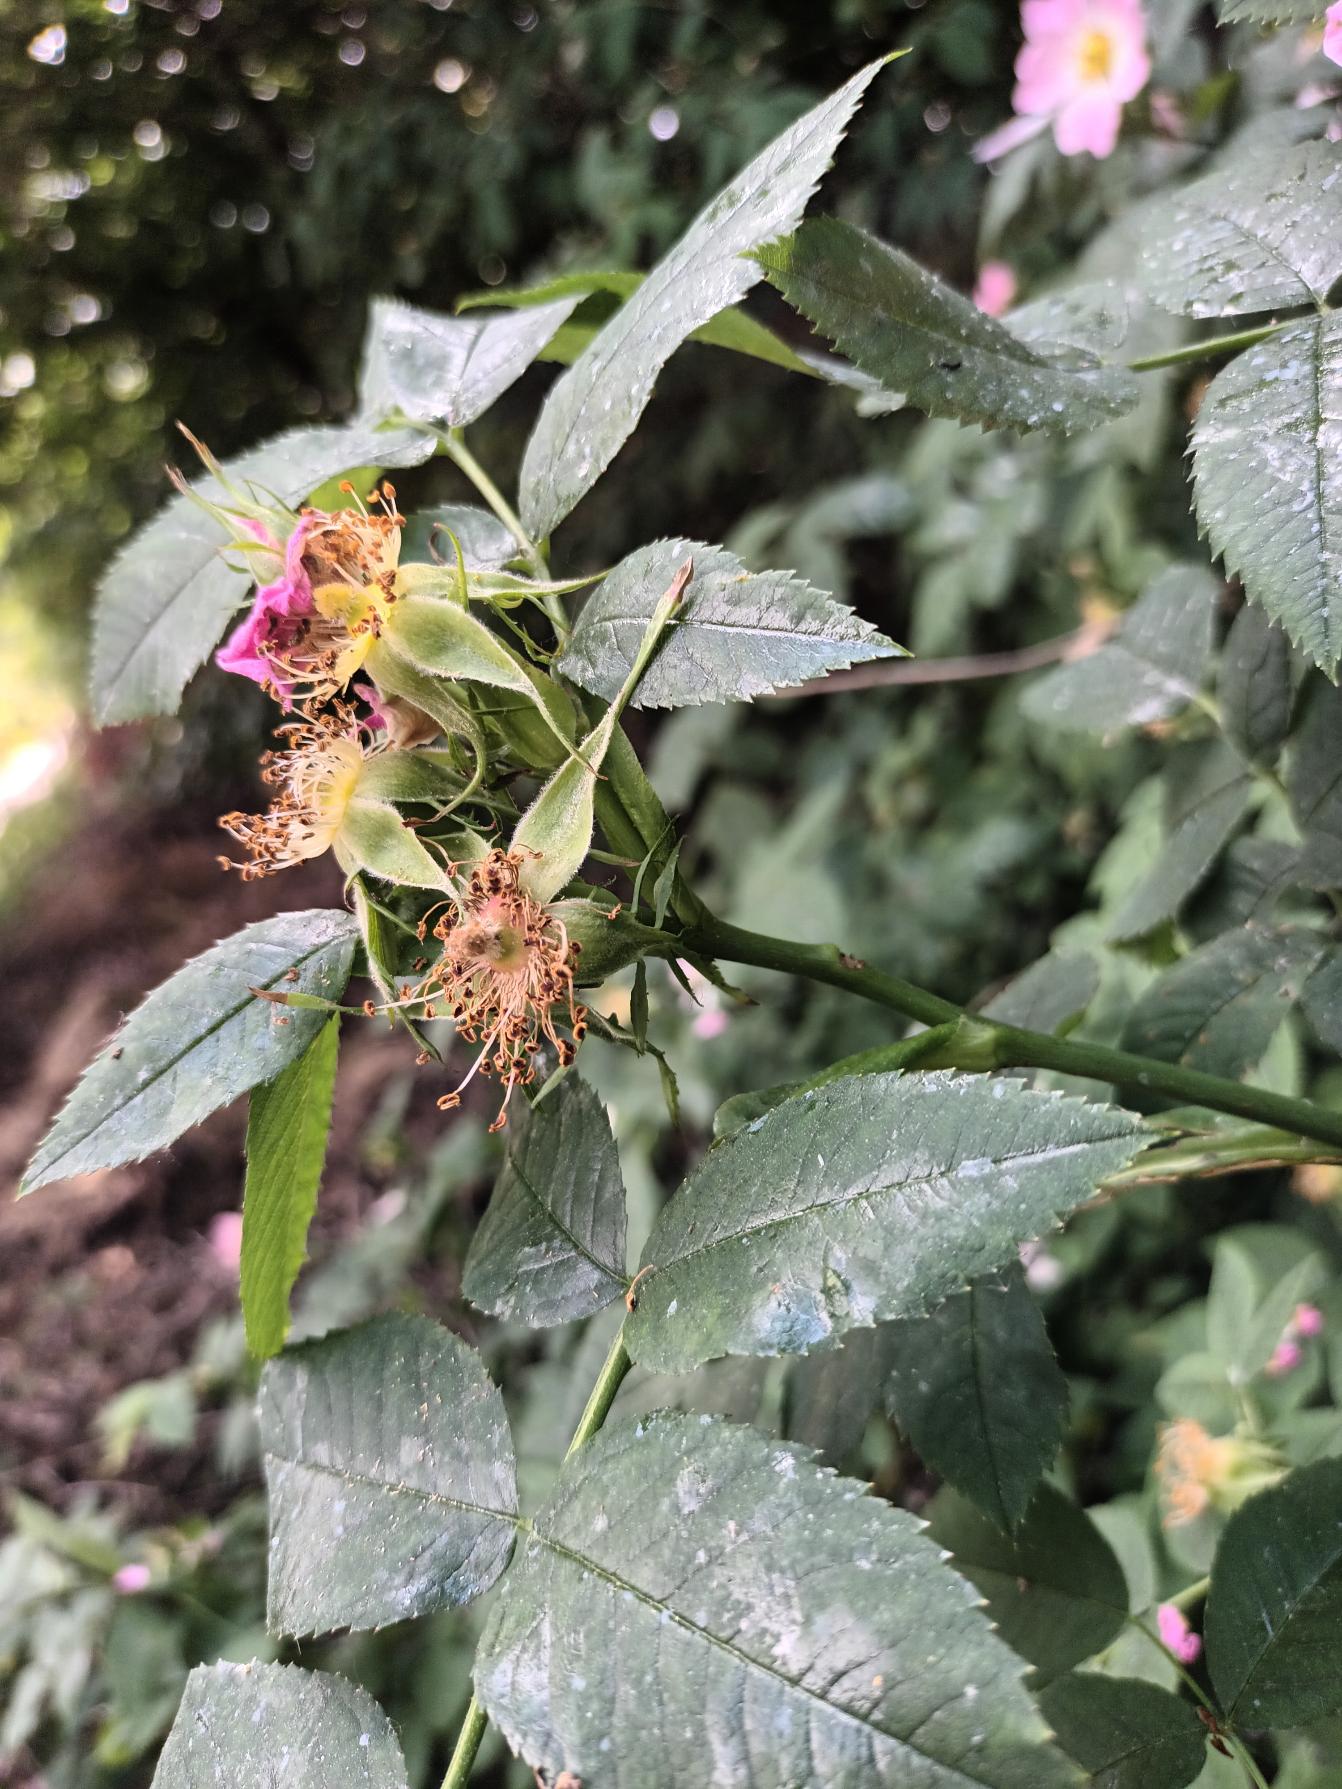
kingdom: Plantae
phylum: Tracheophyta
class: Magnoliopsida
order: Rosales
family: Rosaceae
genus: Rosa
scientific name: Rosa dumalis
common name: Blågrøn rose (underart)
